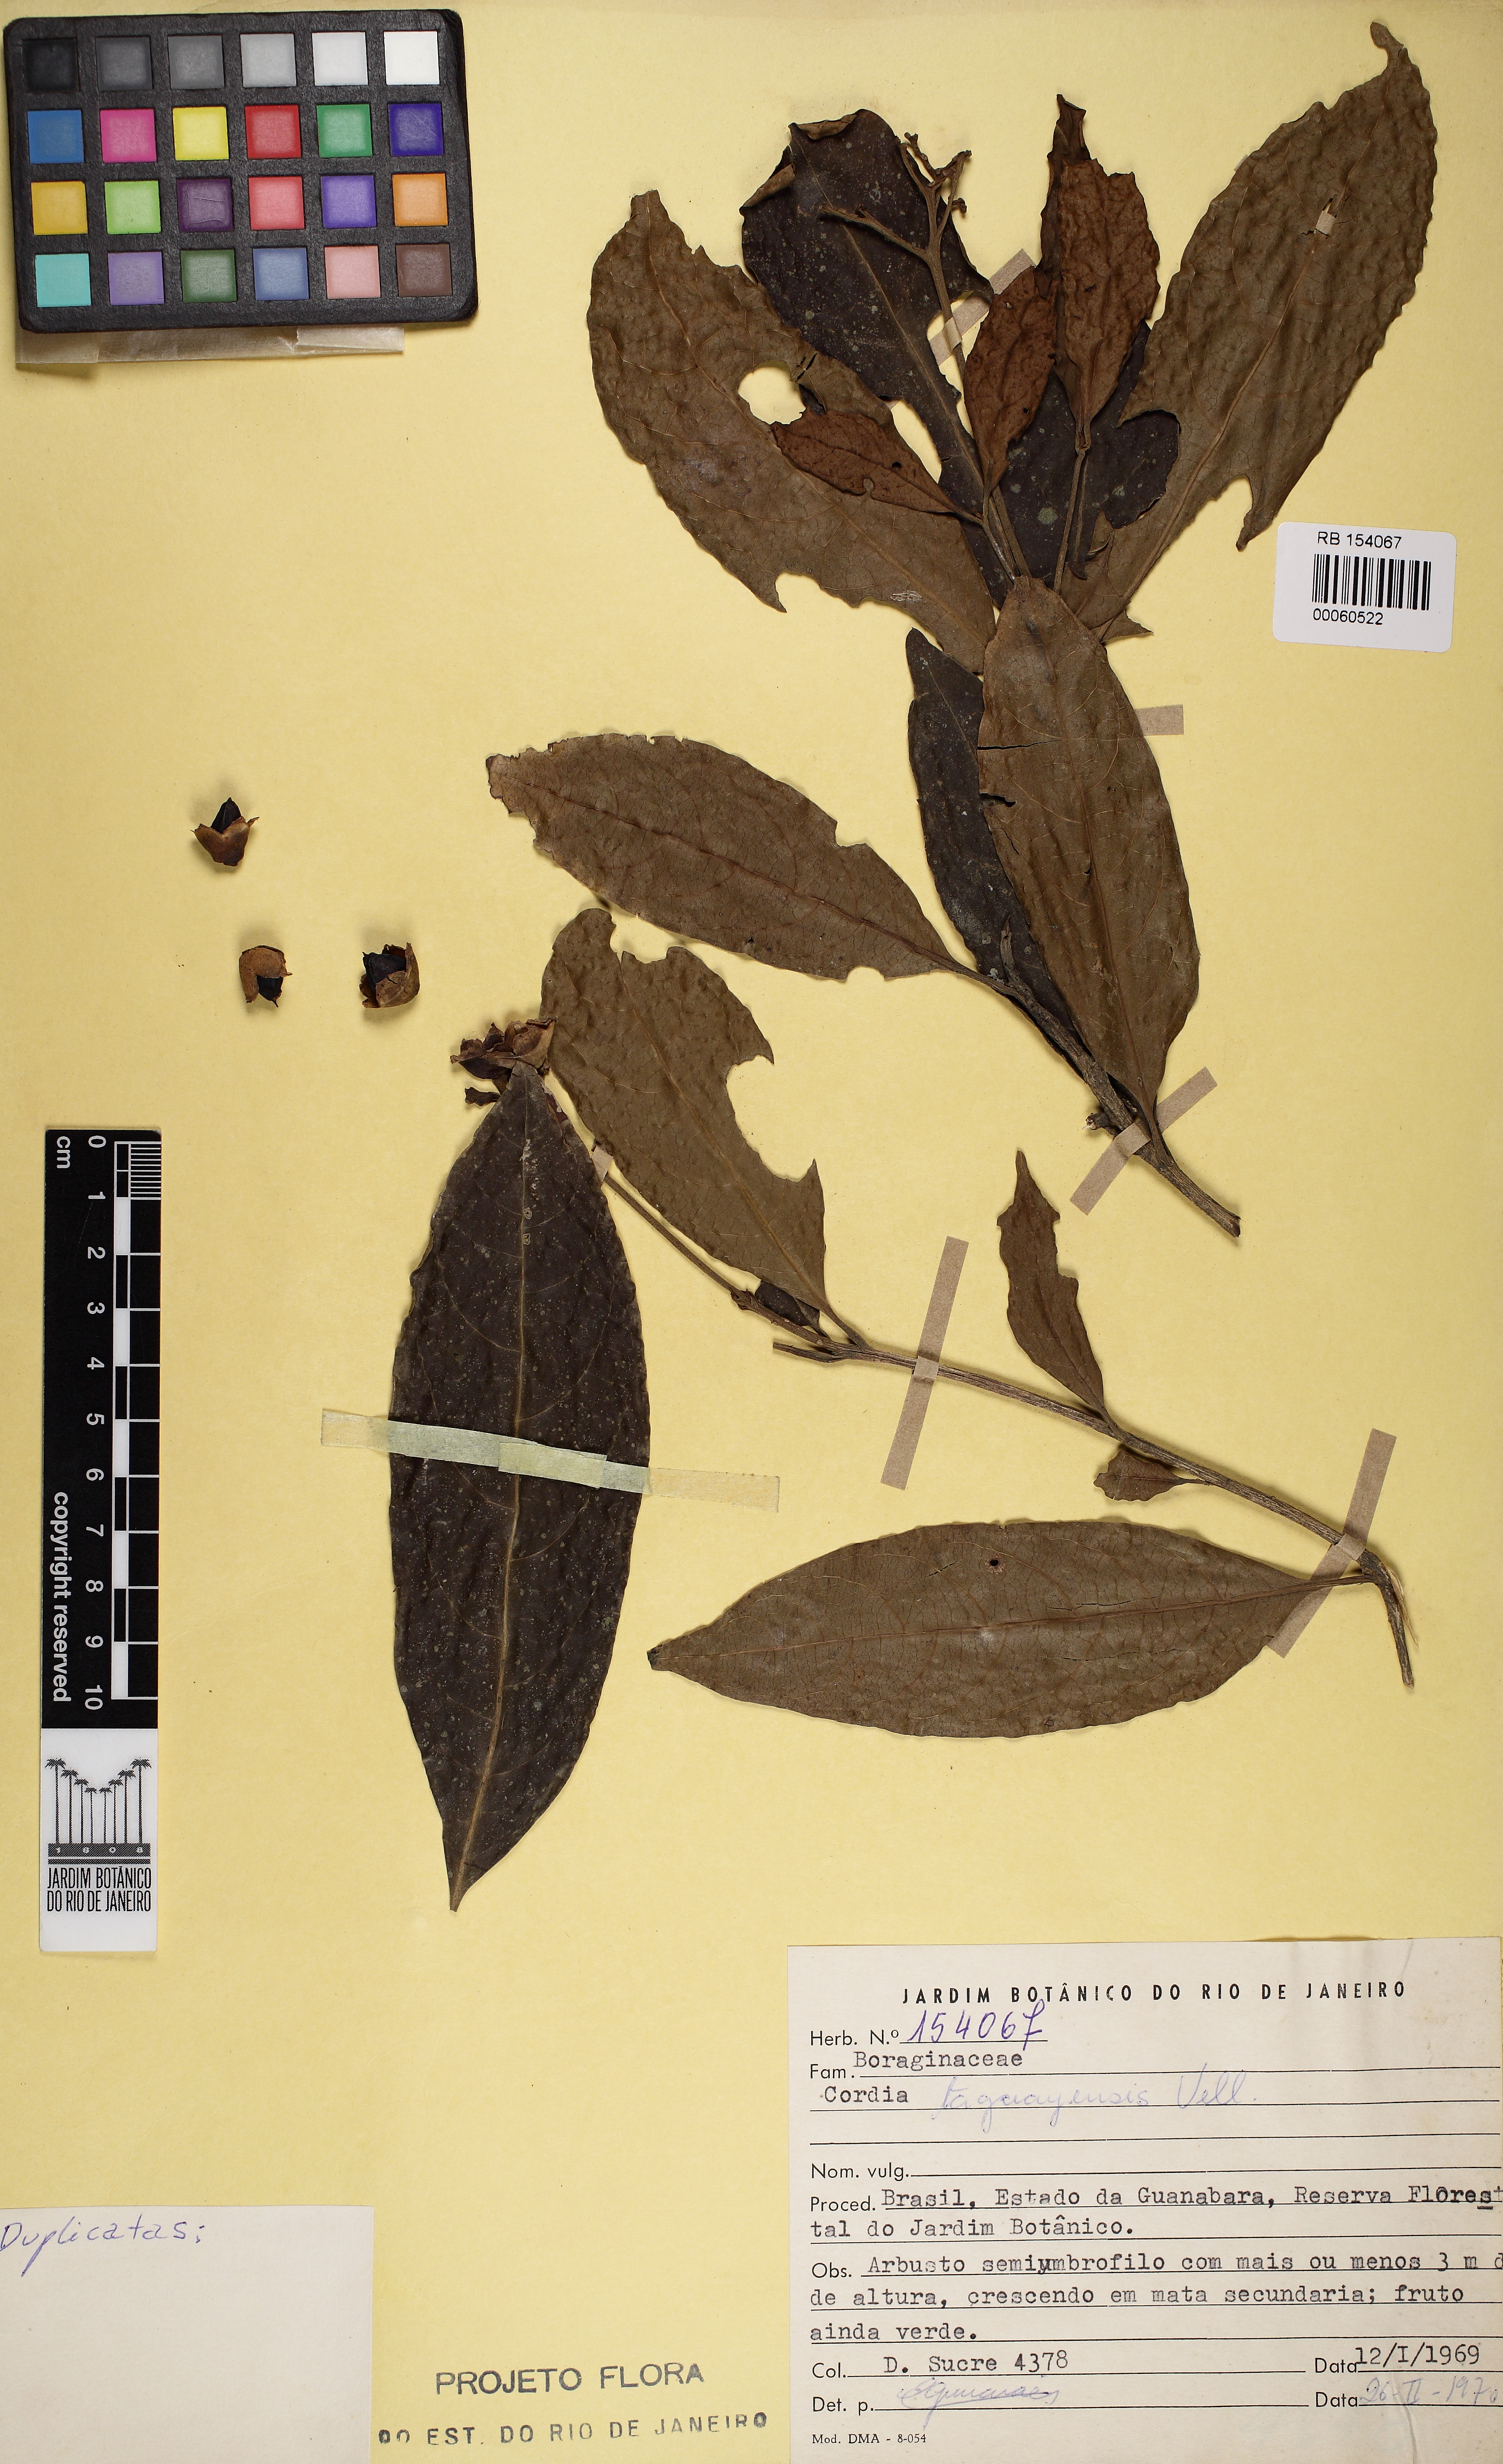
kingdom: Plantae
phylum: Tracheophyta
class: Magnoliopsida
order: Boraginales
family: Cordiaceae
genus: Cordia
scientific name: Cordia taguahuyensis
